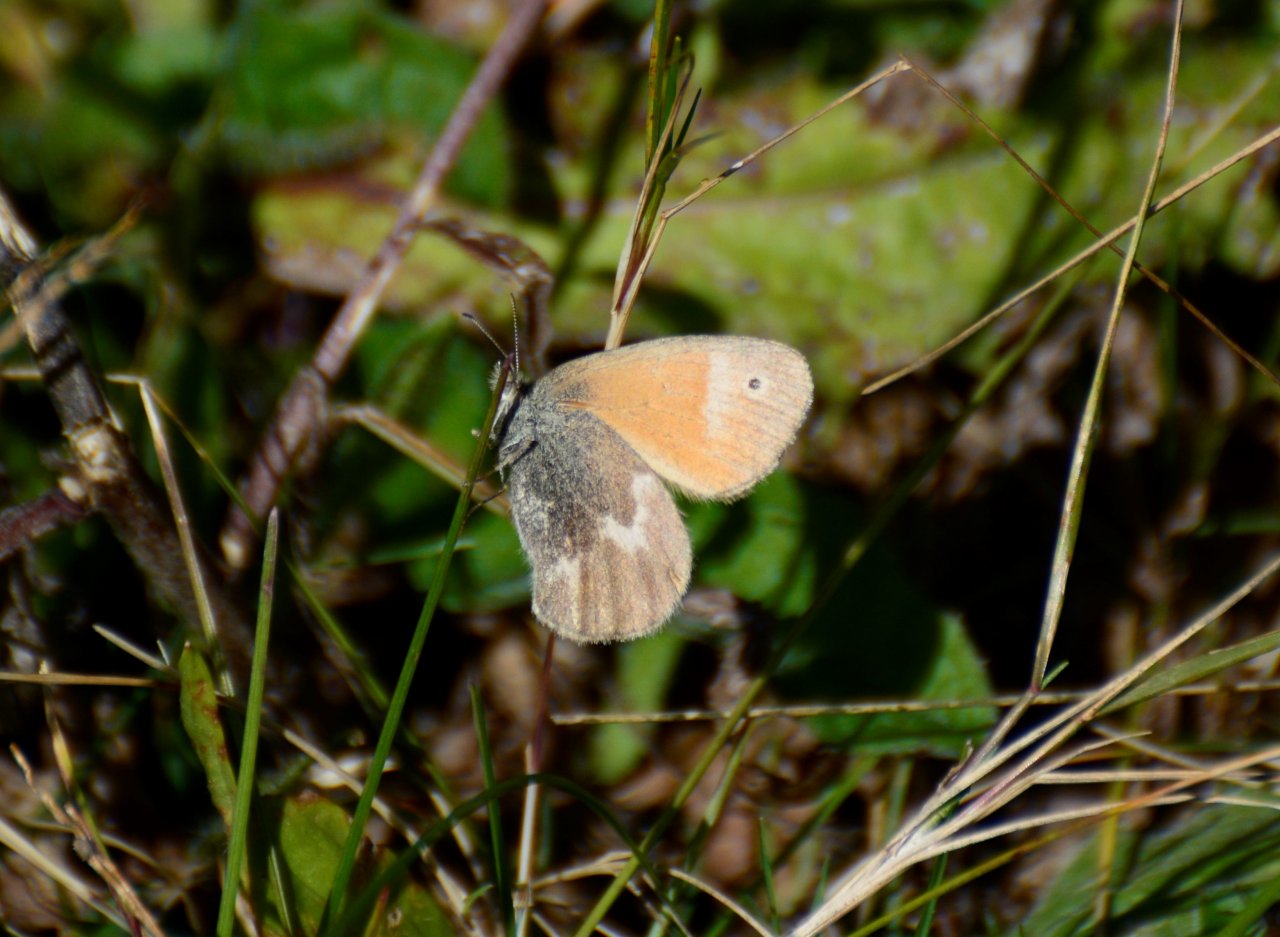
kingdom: Animalia
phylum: Arthropoda
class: Insecta
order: Lepidoptera
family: Nymphalidae
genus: Coenonympha
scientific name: Coenonympha tullia
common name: Large Heath
